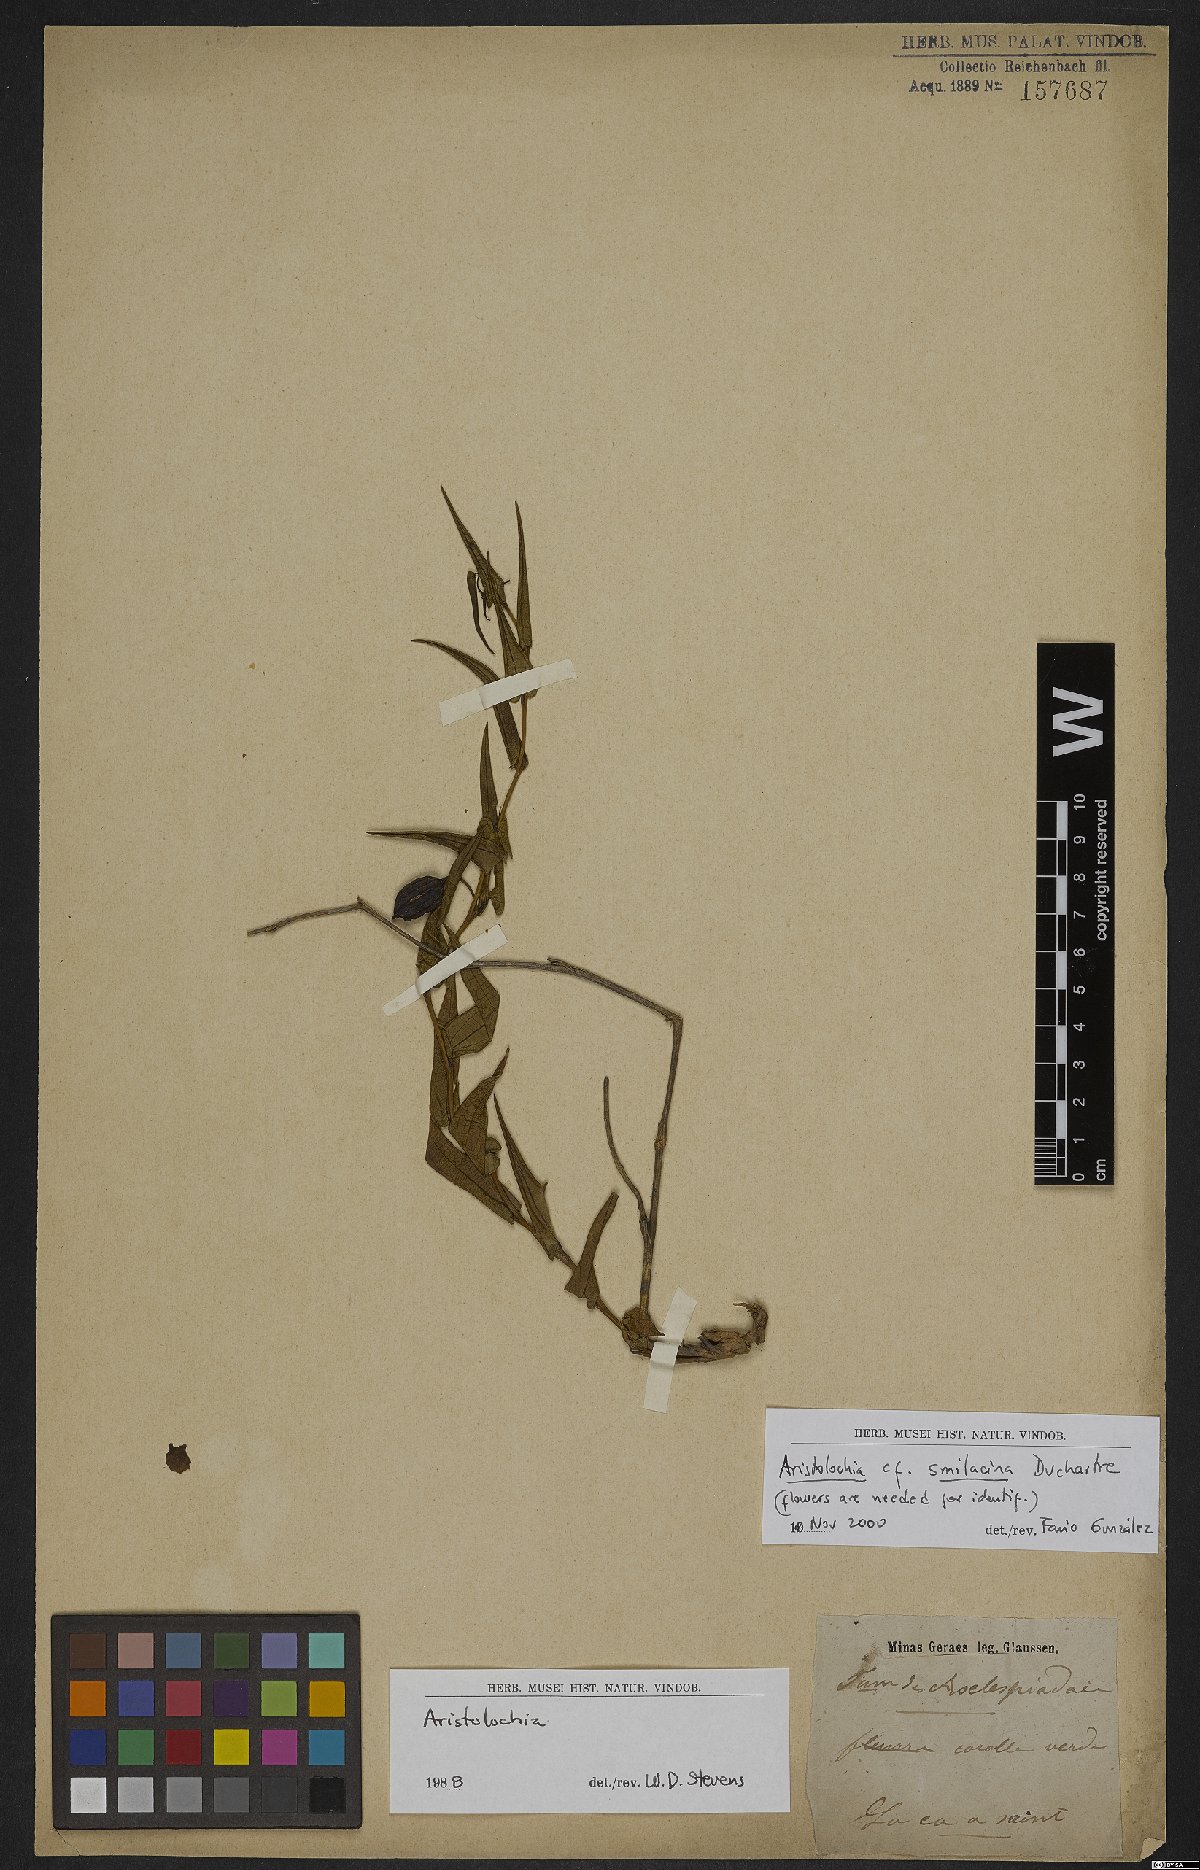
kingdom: Plantae
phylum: Tracheophyta
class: Magnoliopsida
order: Piperales
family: Aristolochiaceae
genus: Aristolochia
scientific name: Aristolochia smilacina
